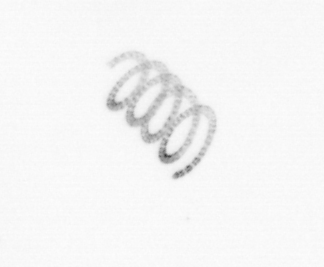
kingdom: Chromista
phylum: Ochrophyta
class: Bacillariophyceae
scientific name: Bacillariophyceae
